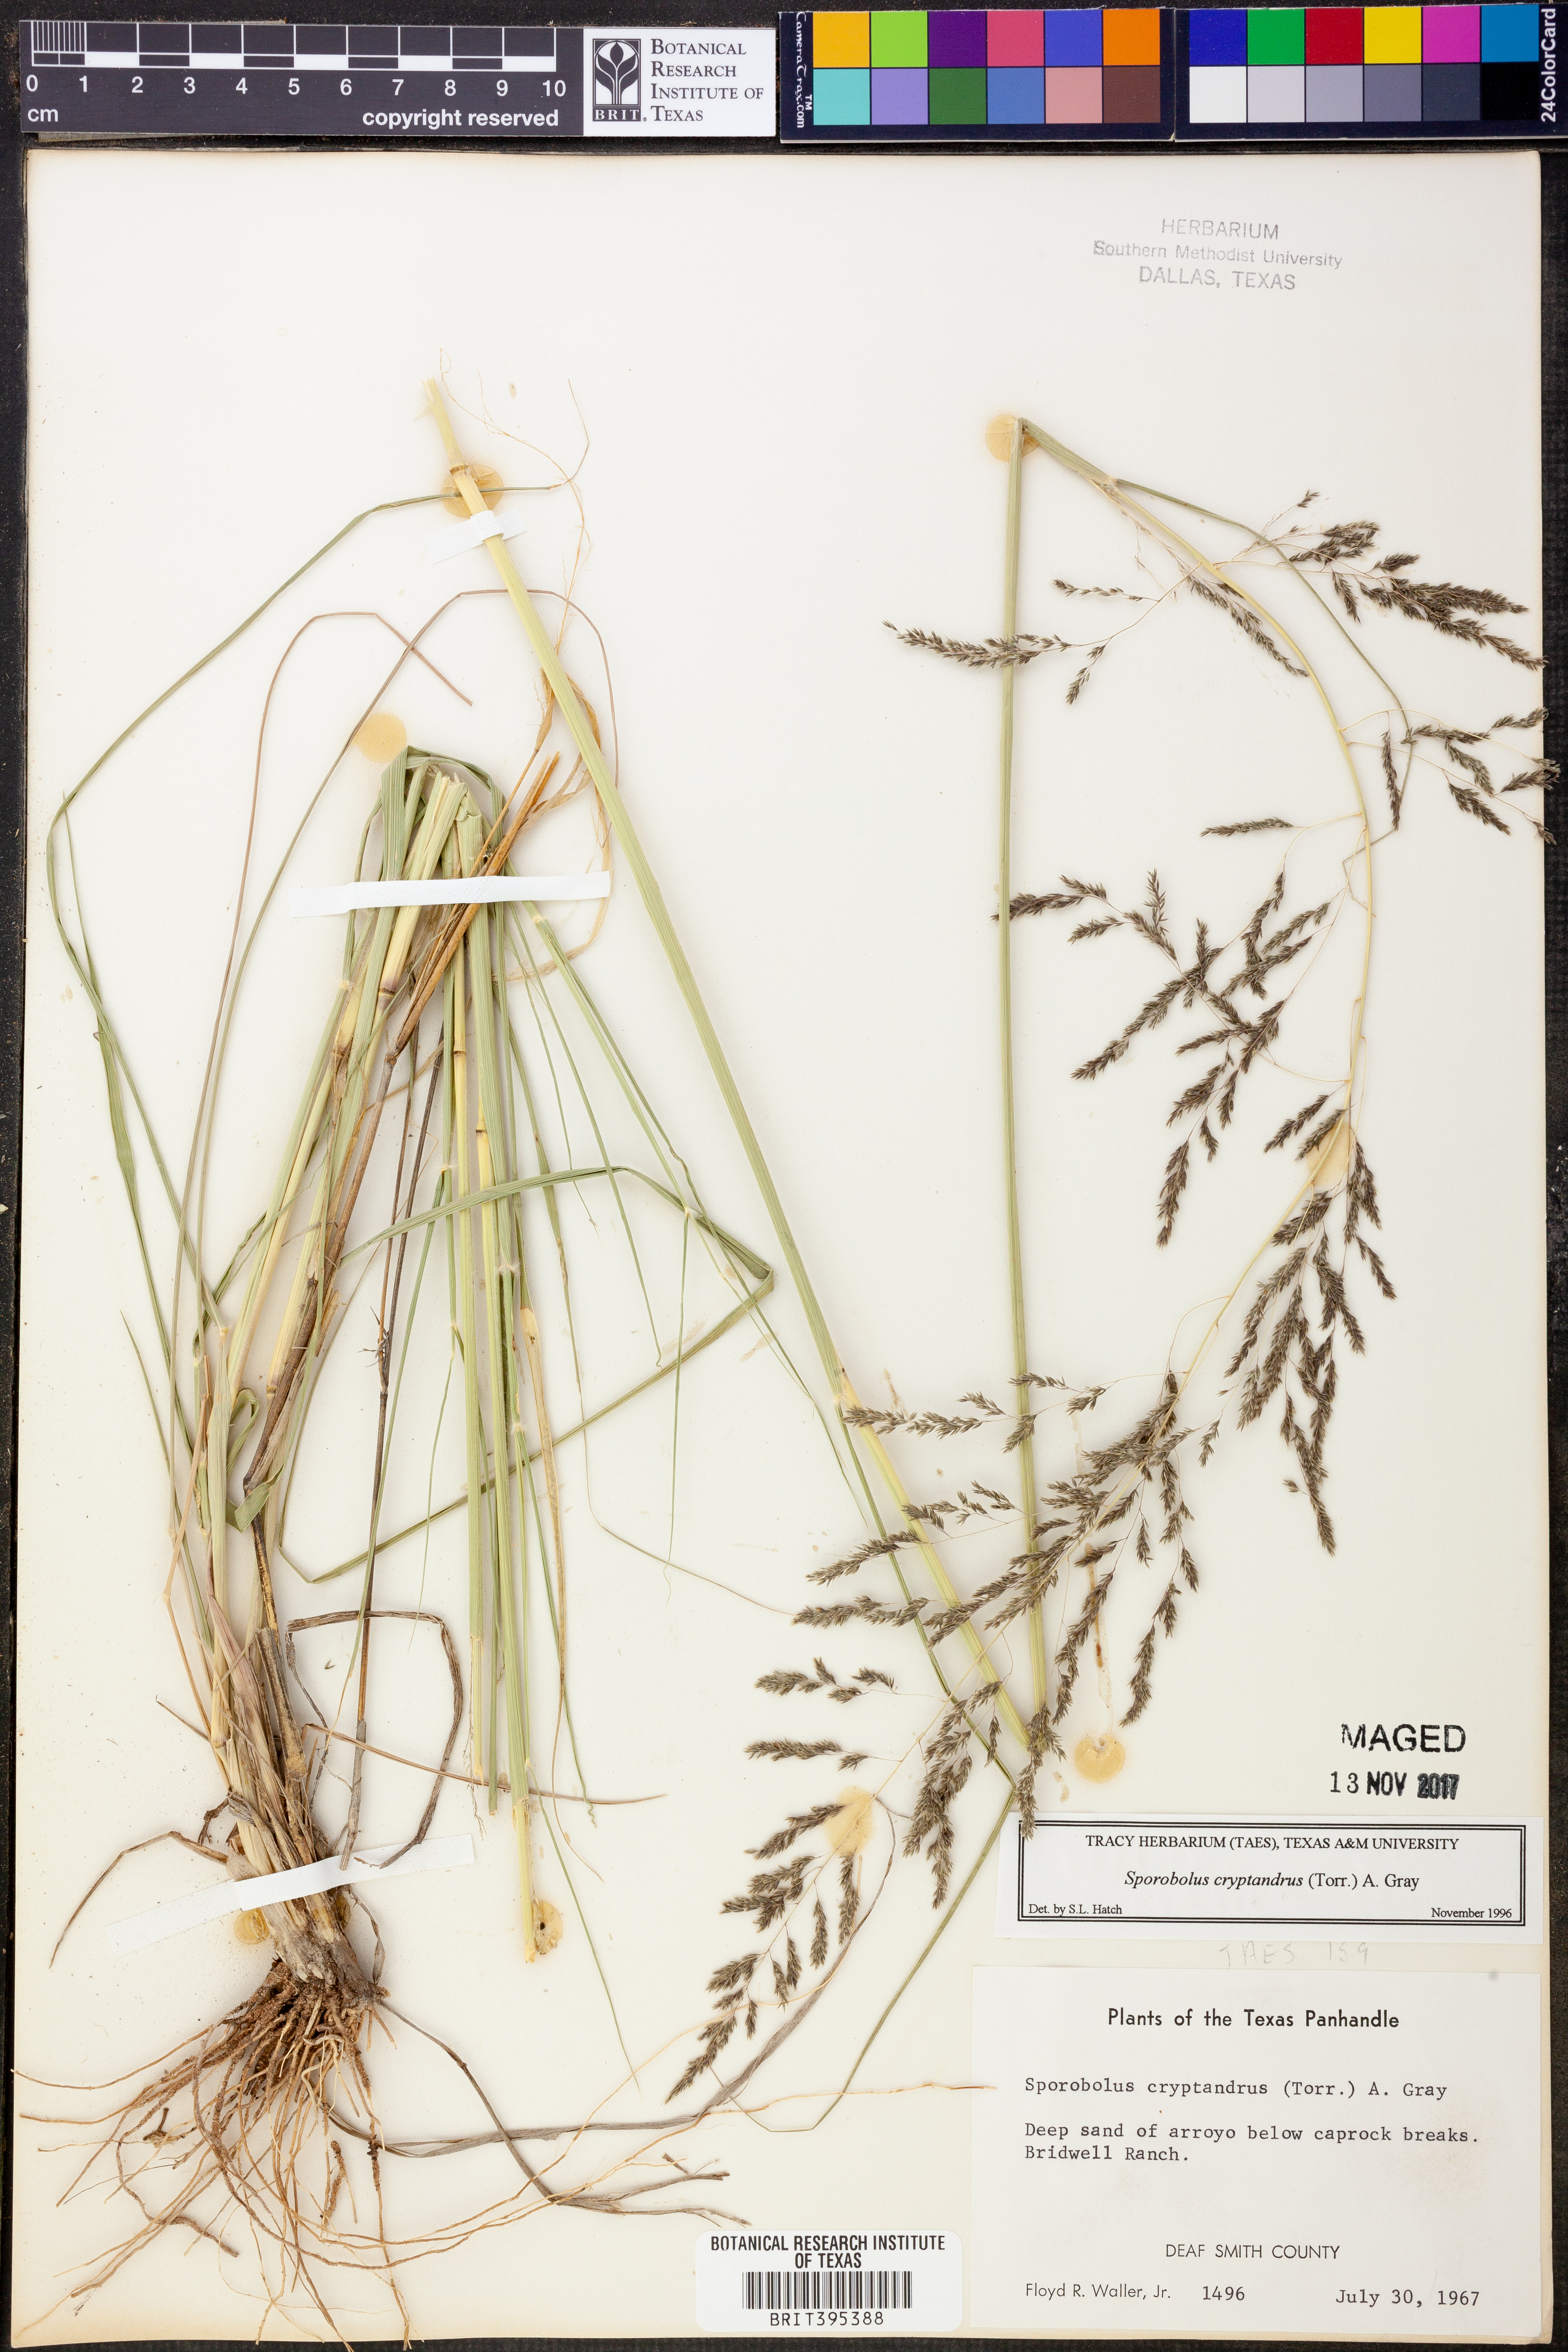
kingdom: Plantae
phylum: Tracheophyta
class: Liliopsida
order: Poales
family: Poaceae
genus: Sporobolus
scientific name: Sporobolus cryptandrus
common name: Sand dropseed
